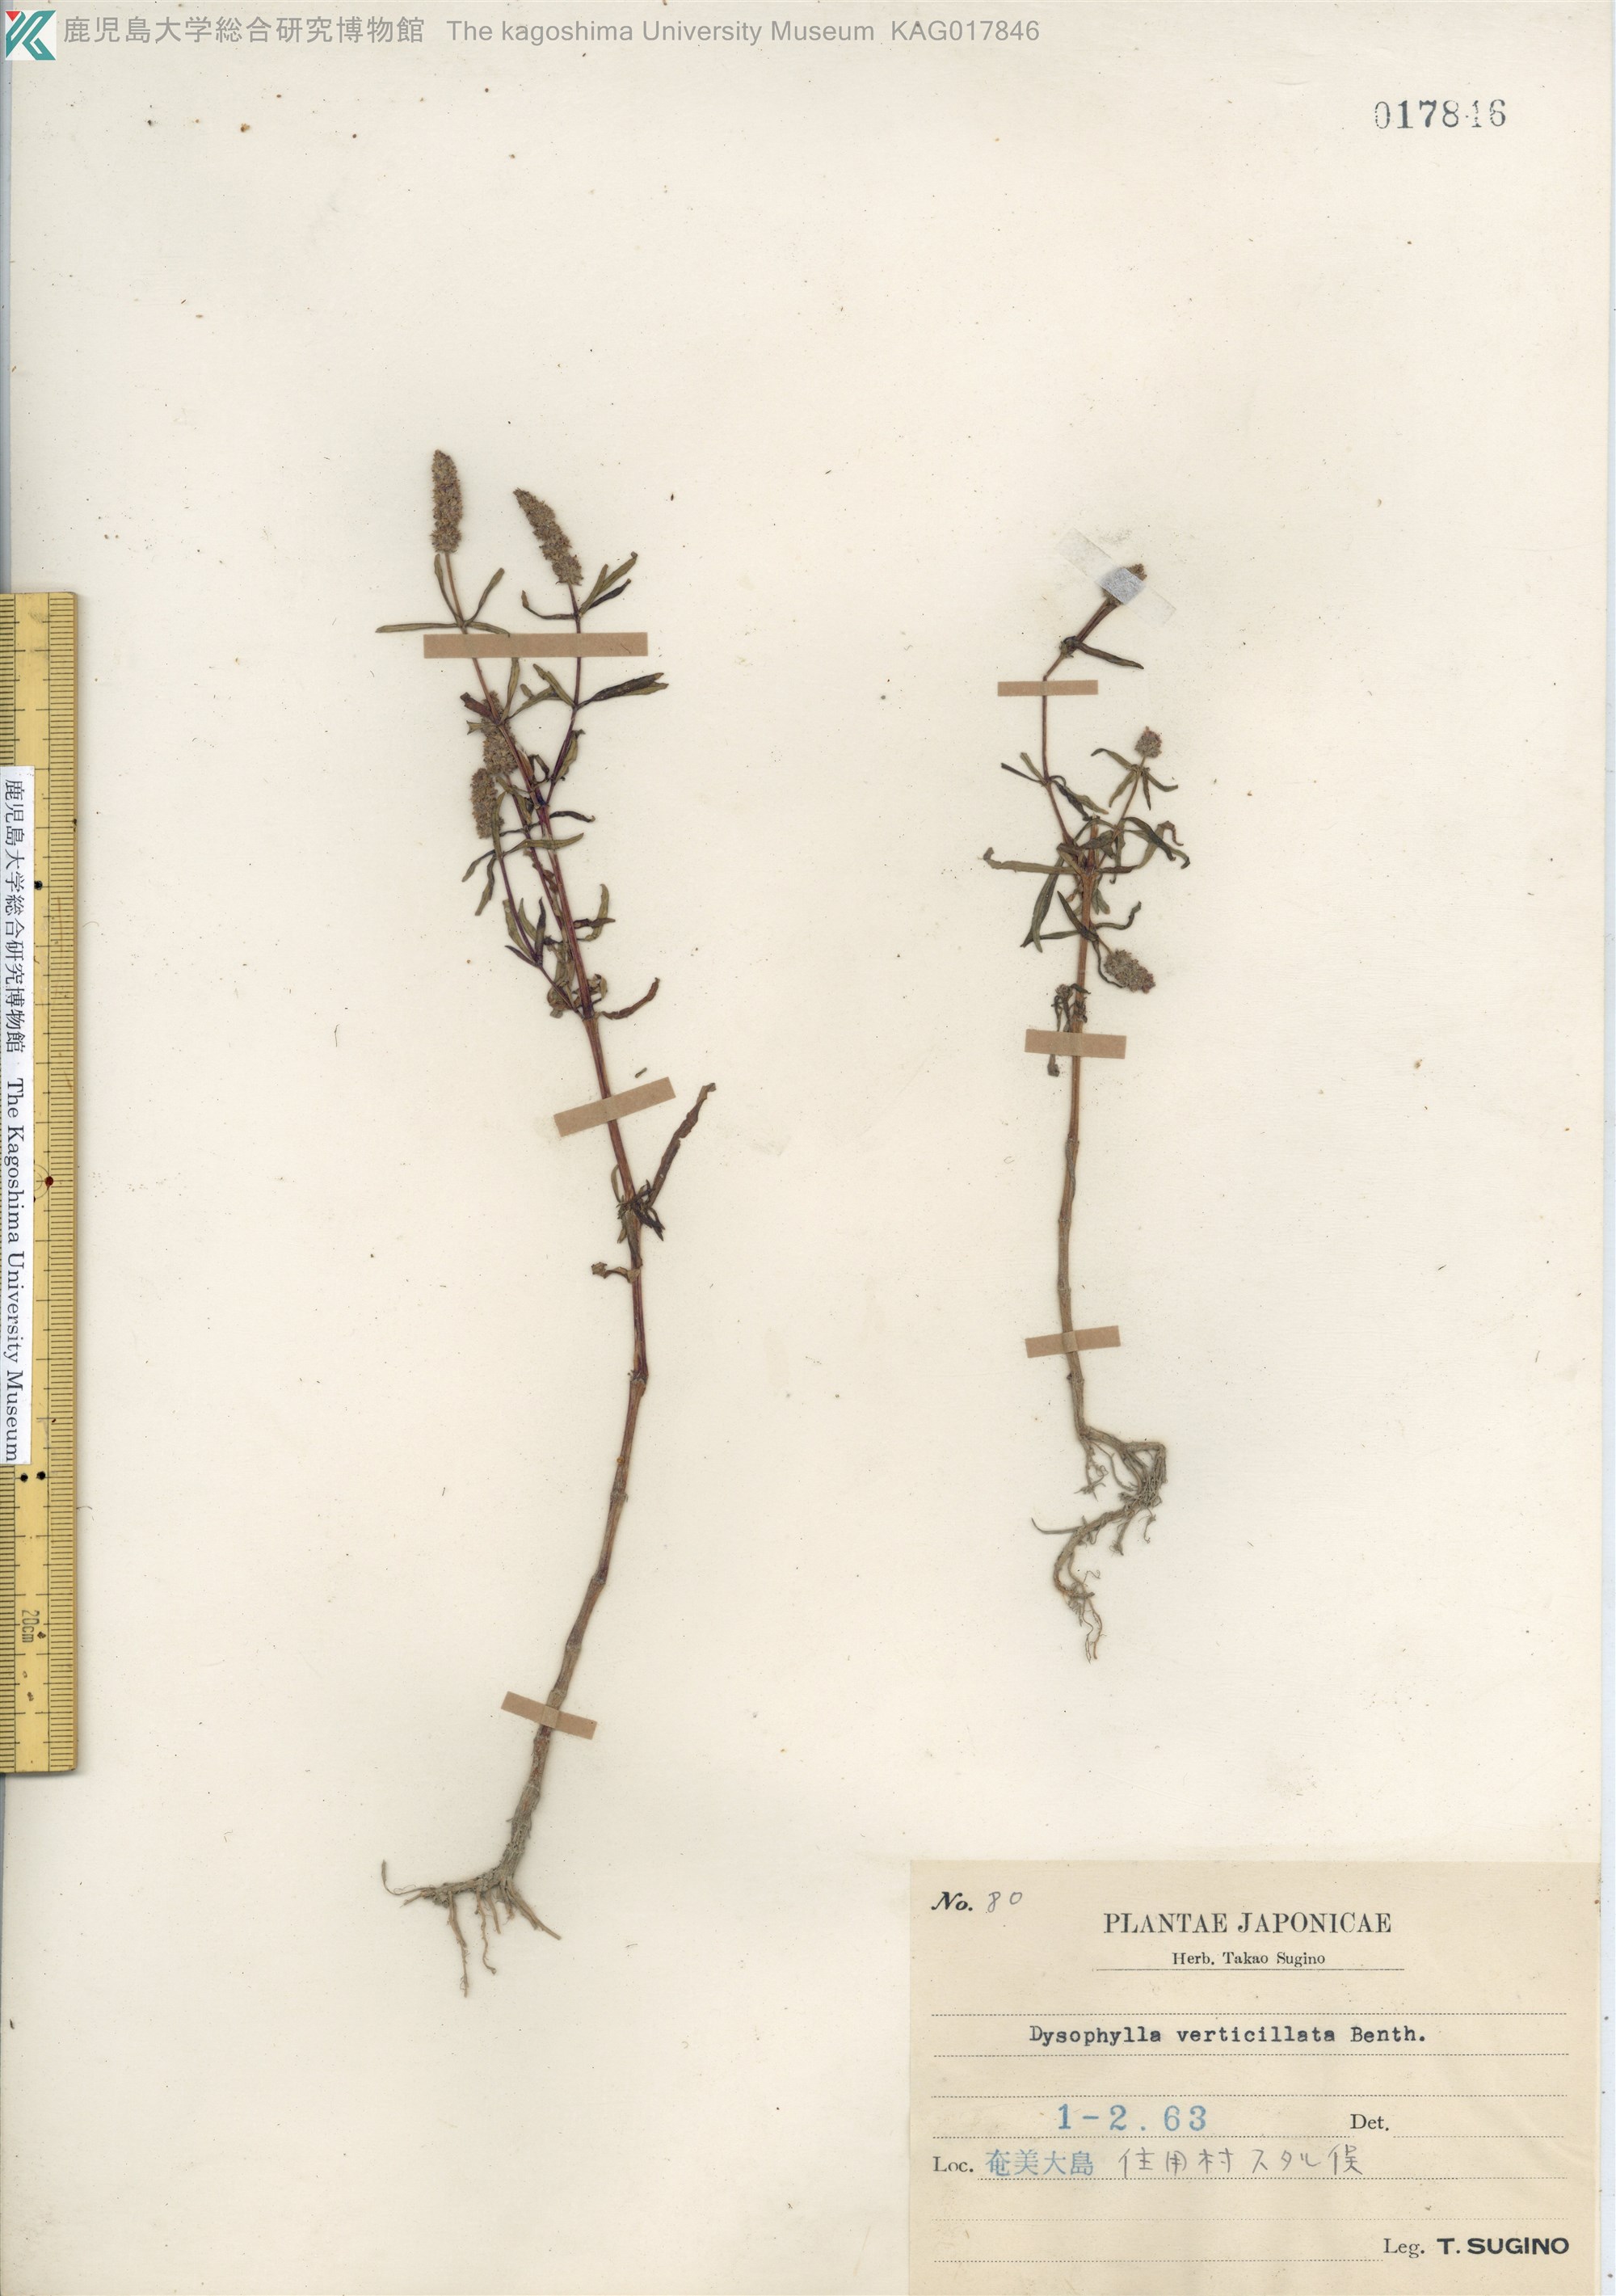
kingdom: Plantae
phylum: Tracheophyta
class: Magnoliopsida
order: Lamiales
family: Lamiaceae
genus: Pogostemon
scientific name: Pogostemon stellatus
